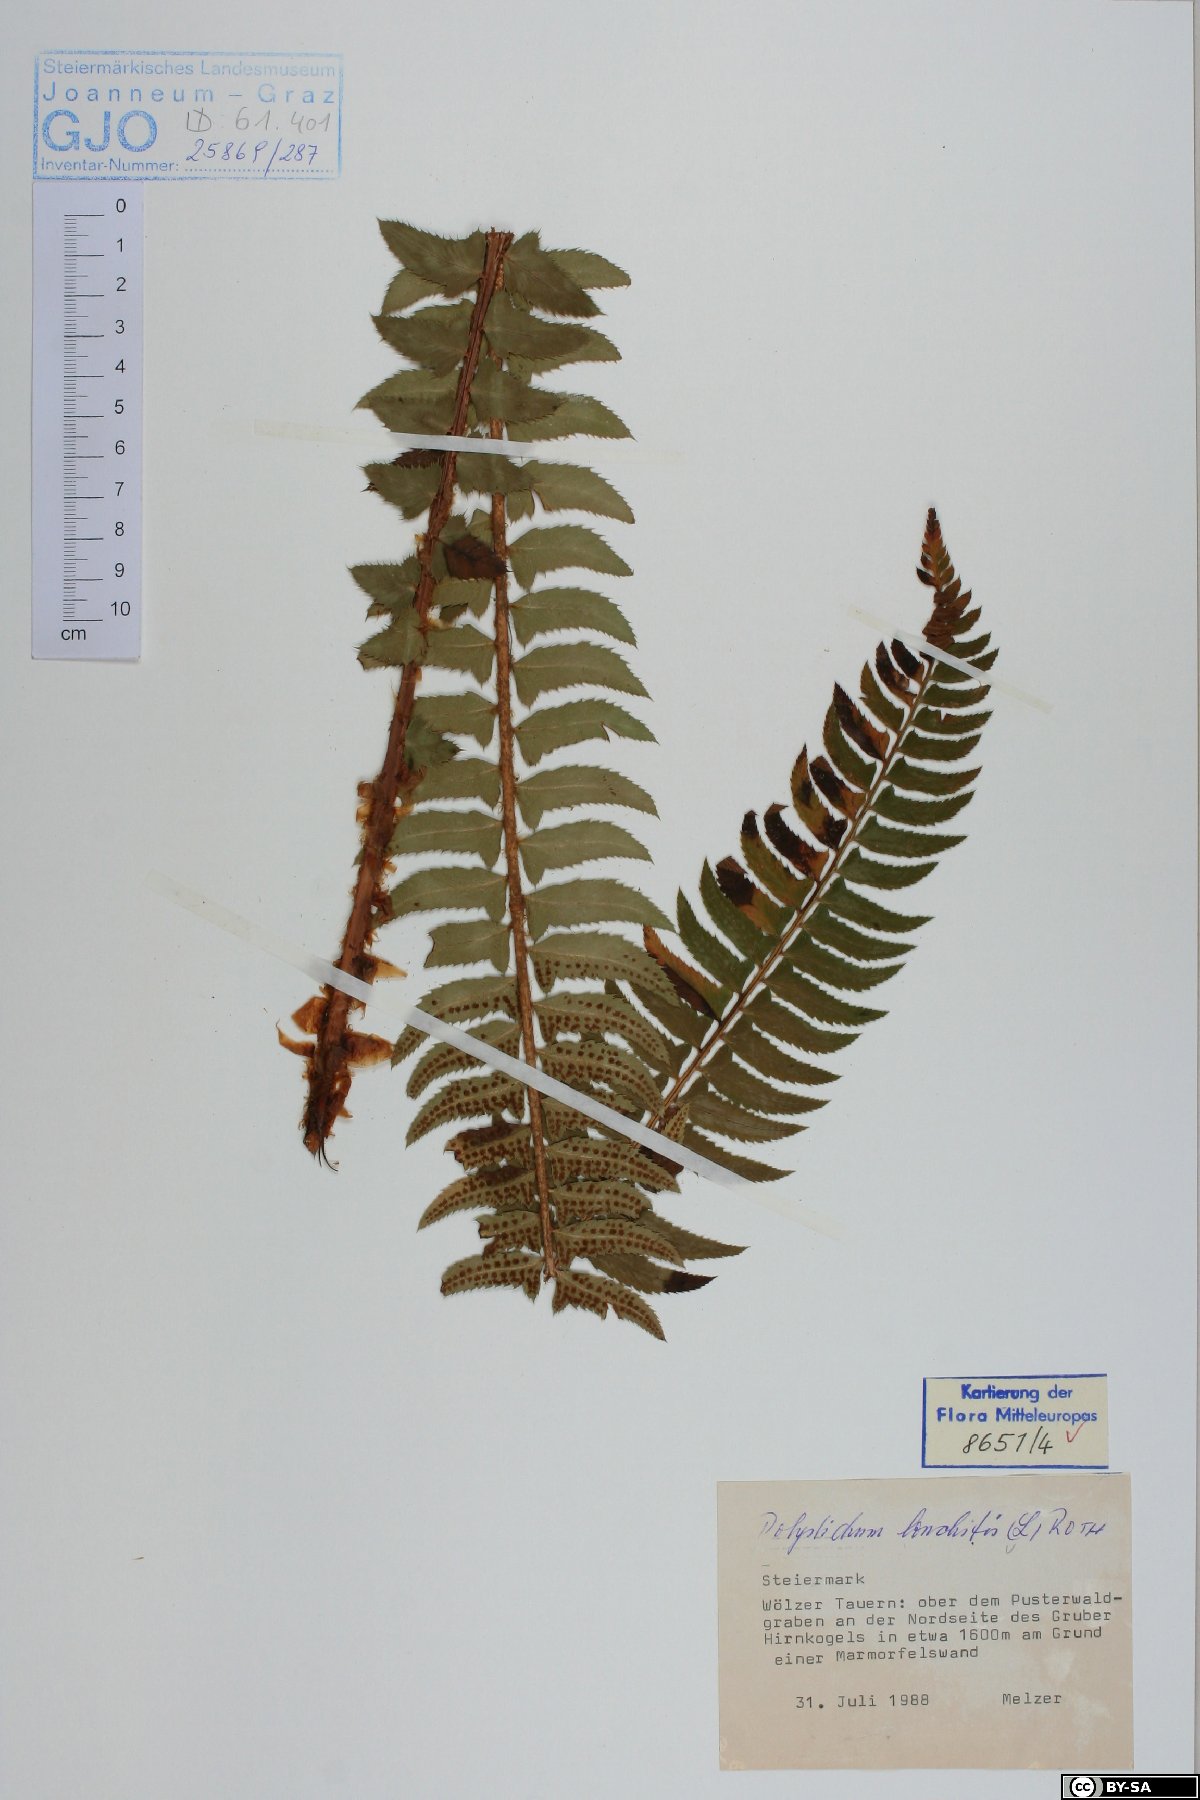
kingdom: Plantae
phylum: Tracheophyta
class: Polypodiopsida
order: Polypodiales
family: Dryopteridaceae
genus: Polystichum
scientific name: Polystichum lonchitis
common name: Holly fern
